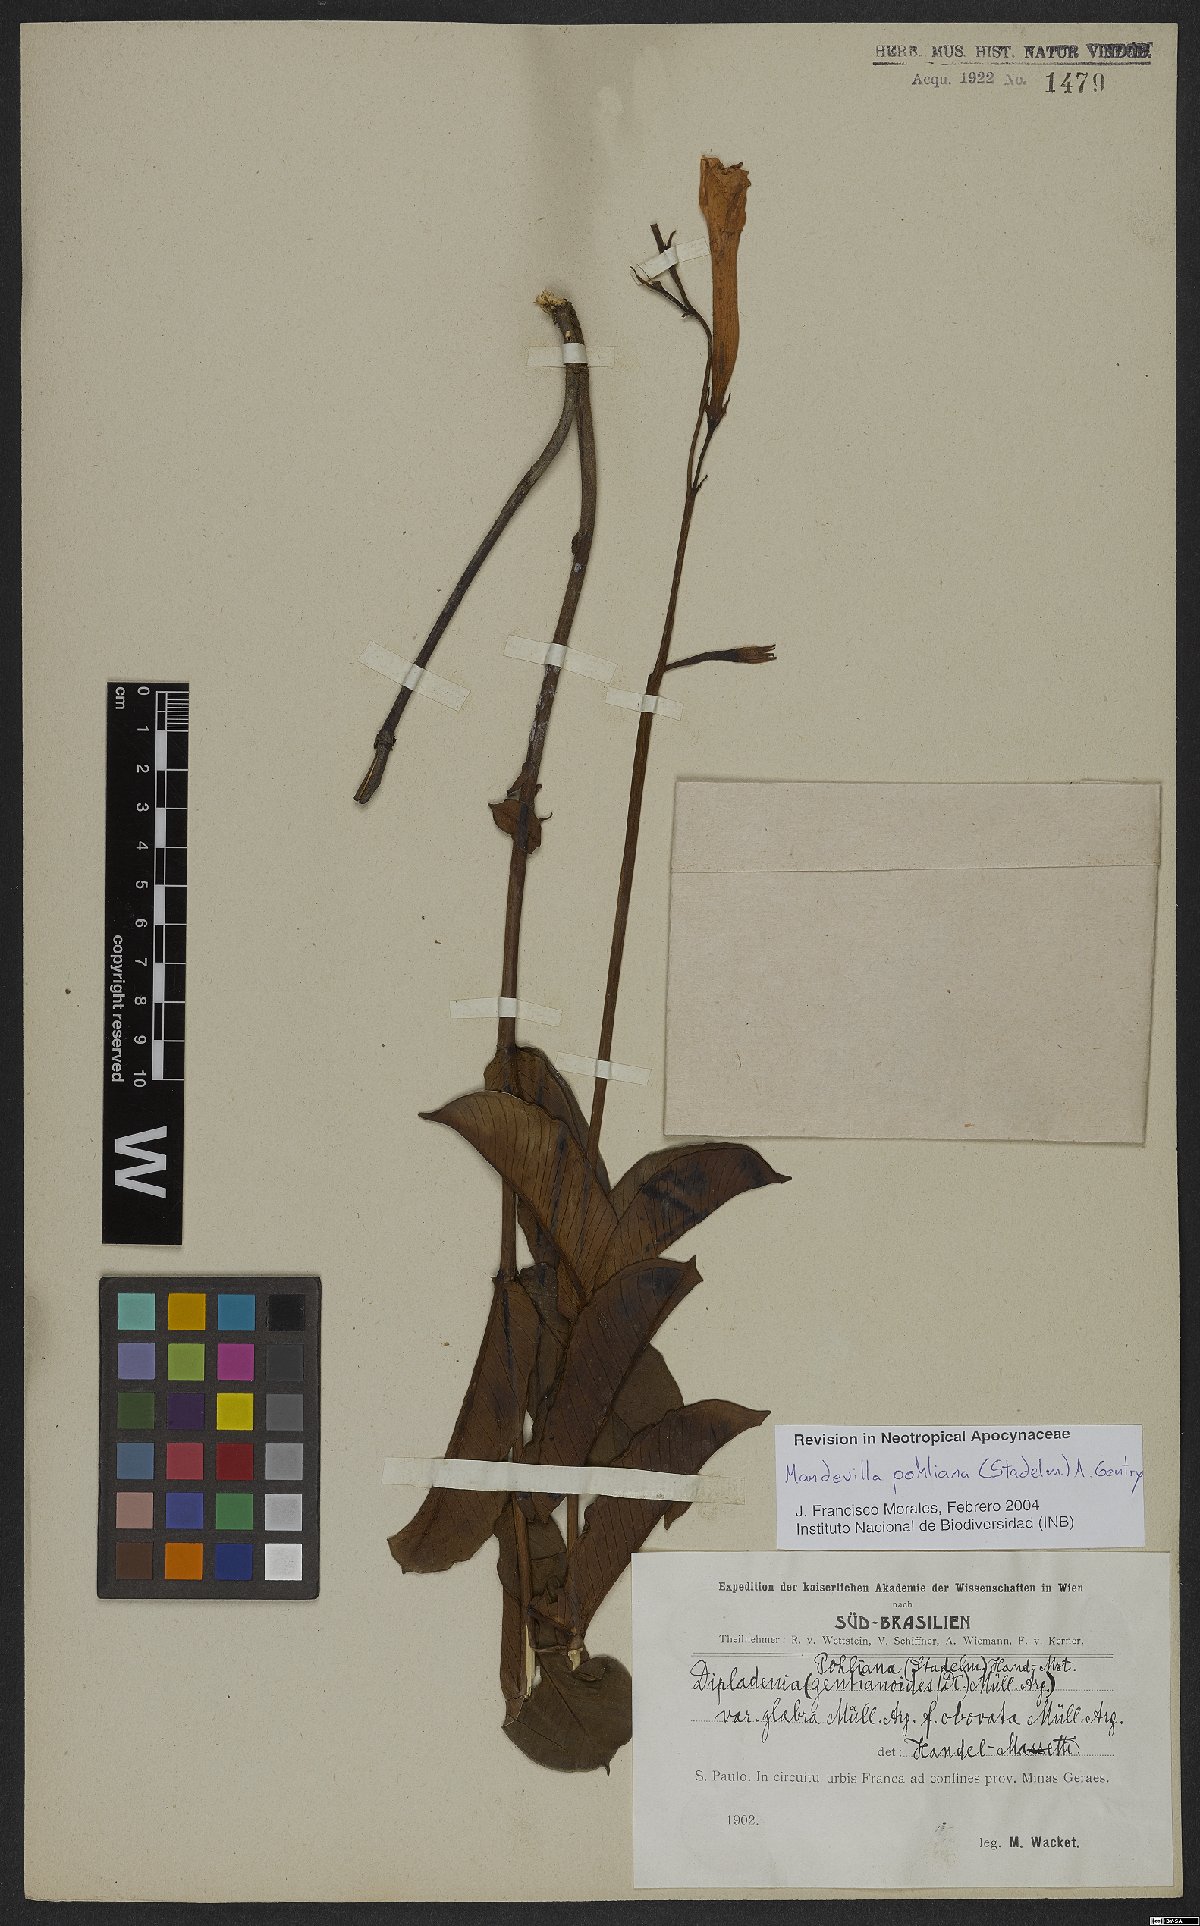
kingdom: Plantae
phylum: Tracheophyta
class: Magnoliopsida
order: Gentianales
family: Apocynaceae
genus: Mandevilla
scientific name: Mandevilla pohliana
